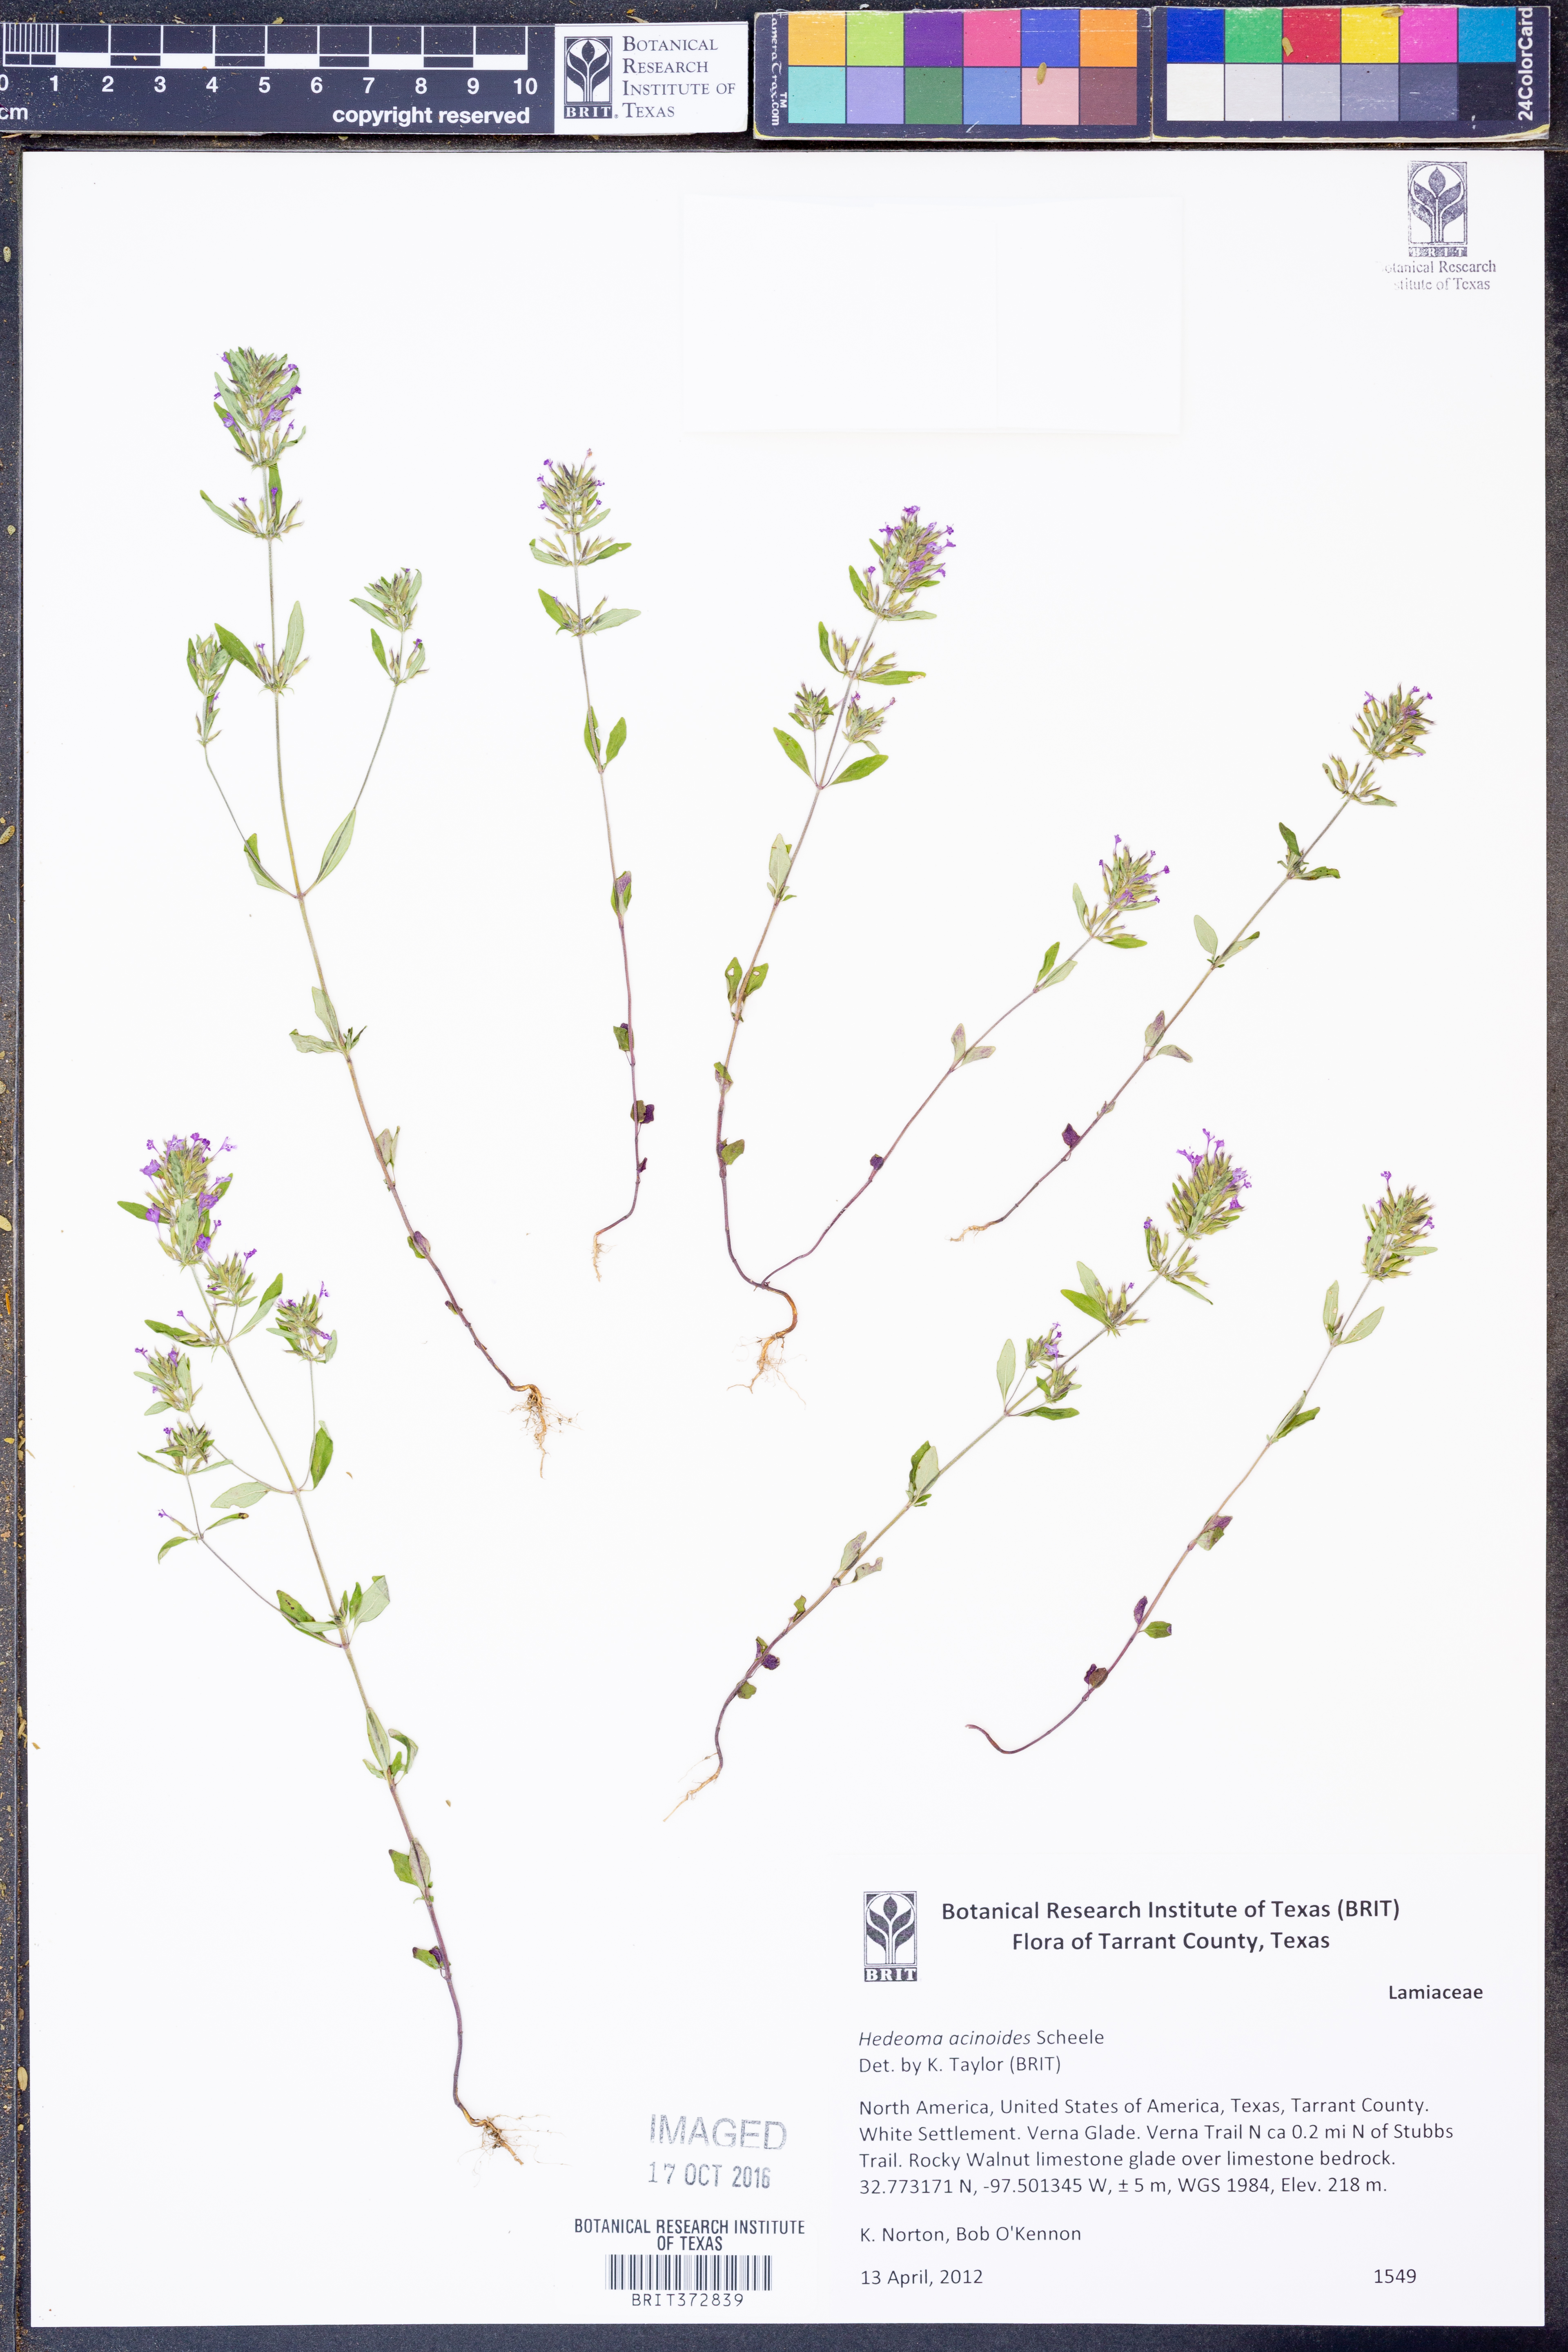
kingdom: Plantae
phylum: Tracheophyta
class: Magnoliopsida
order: Lamiales
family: Lamiaceae
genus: Hedeoma
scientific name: Hedeoma acinoides
